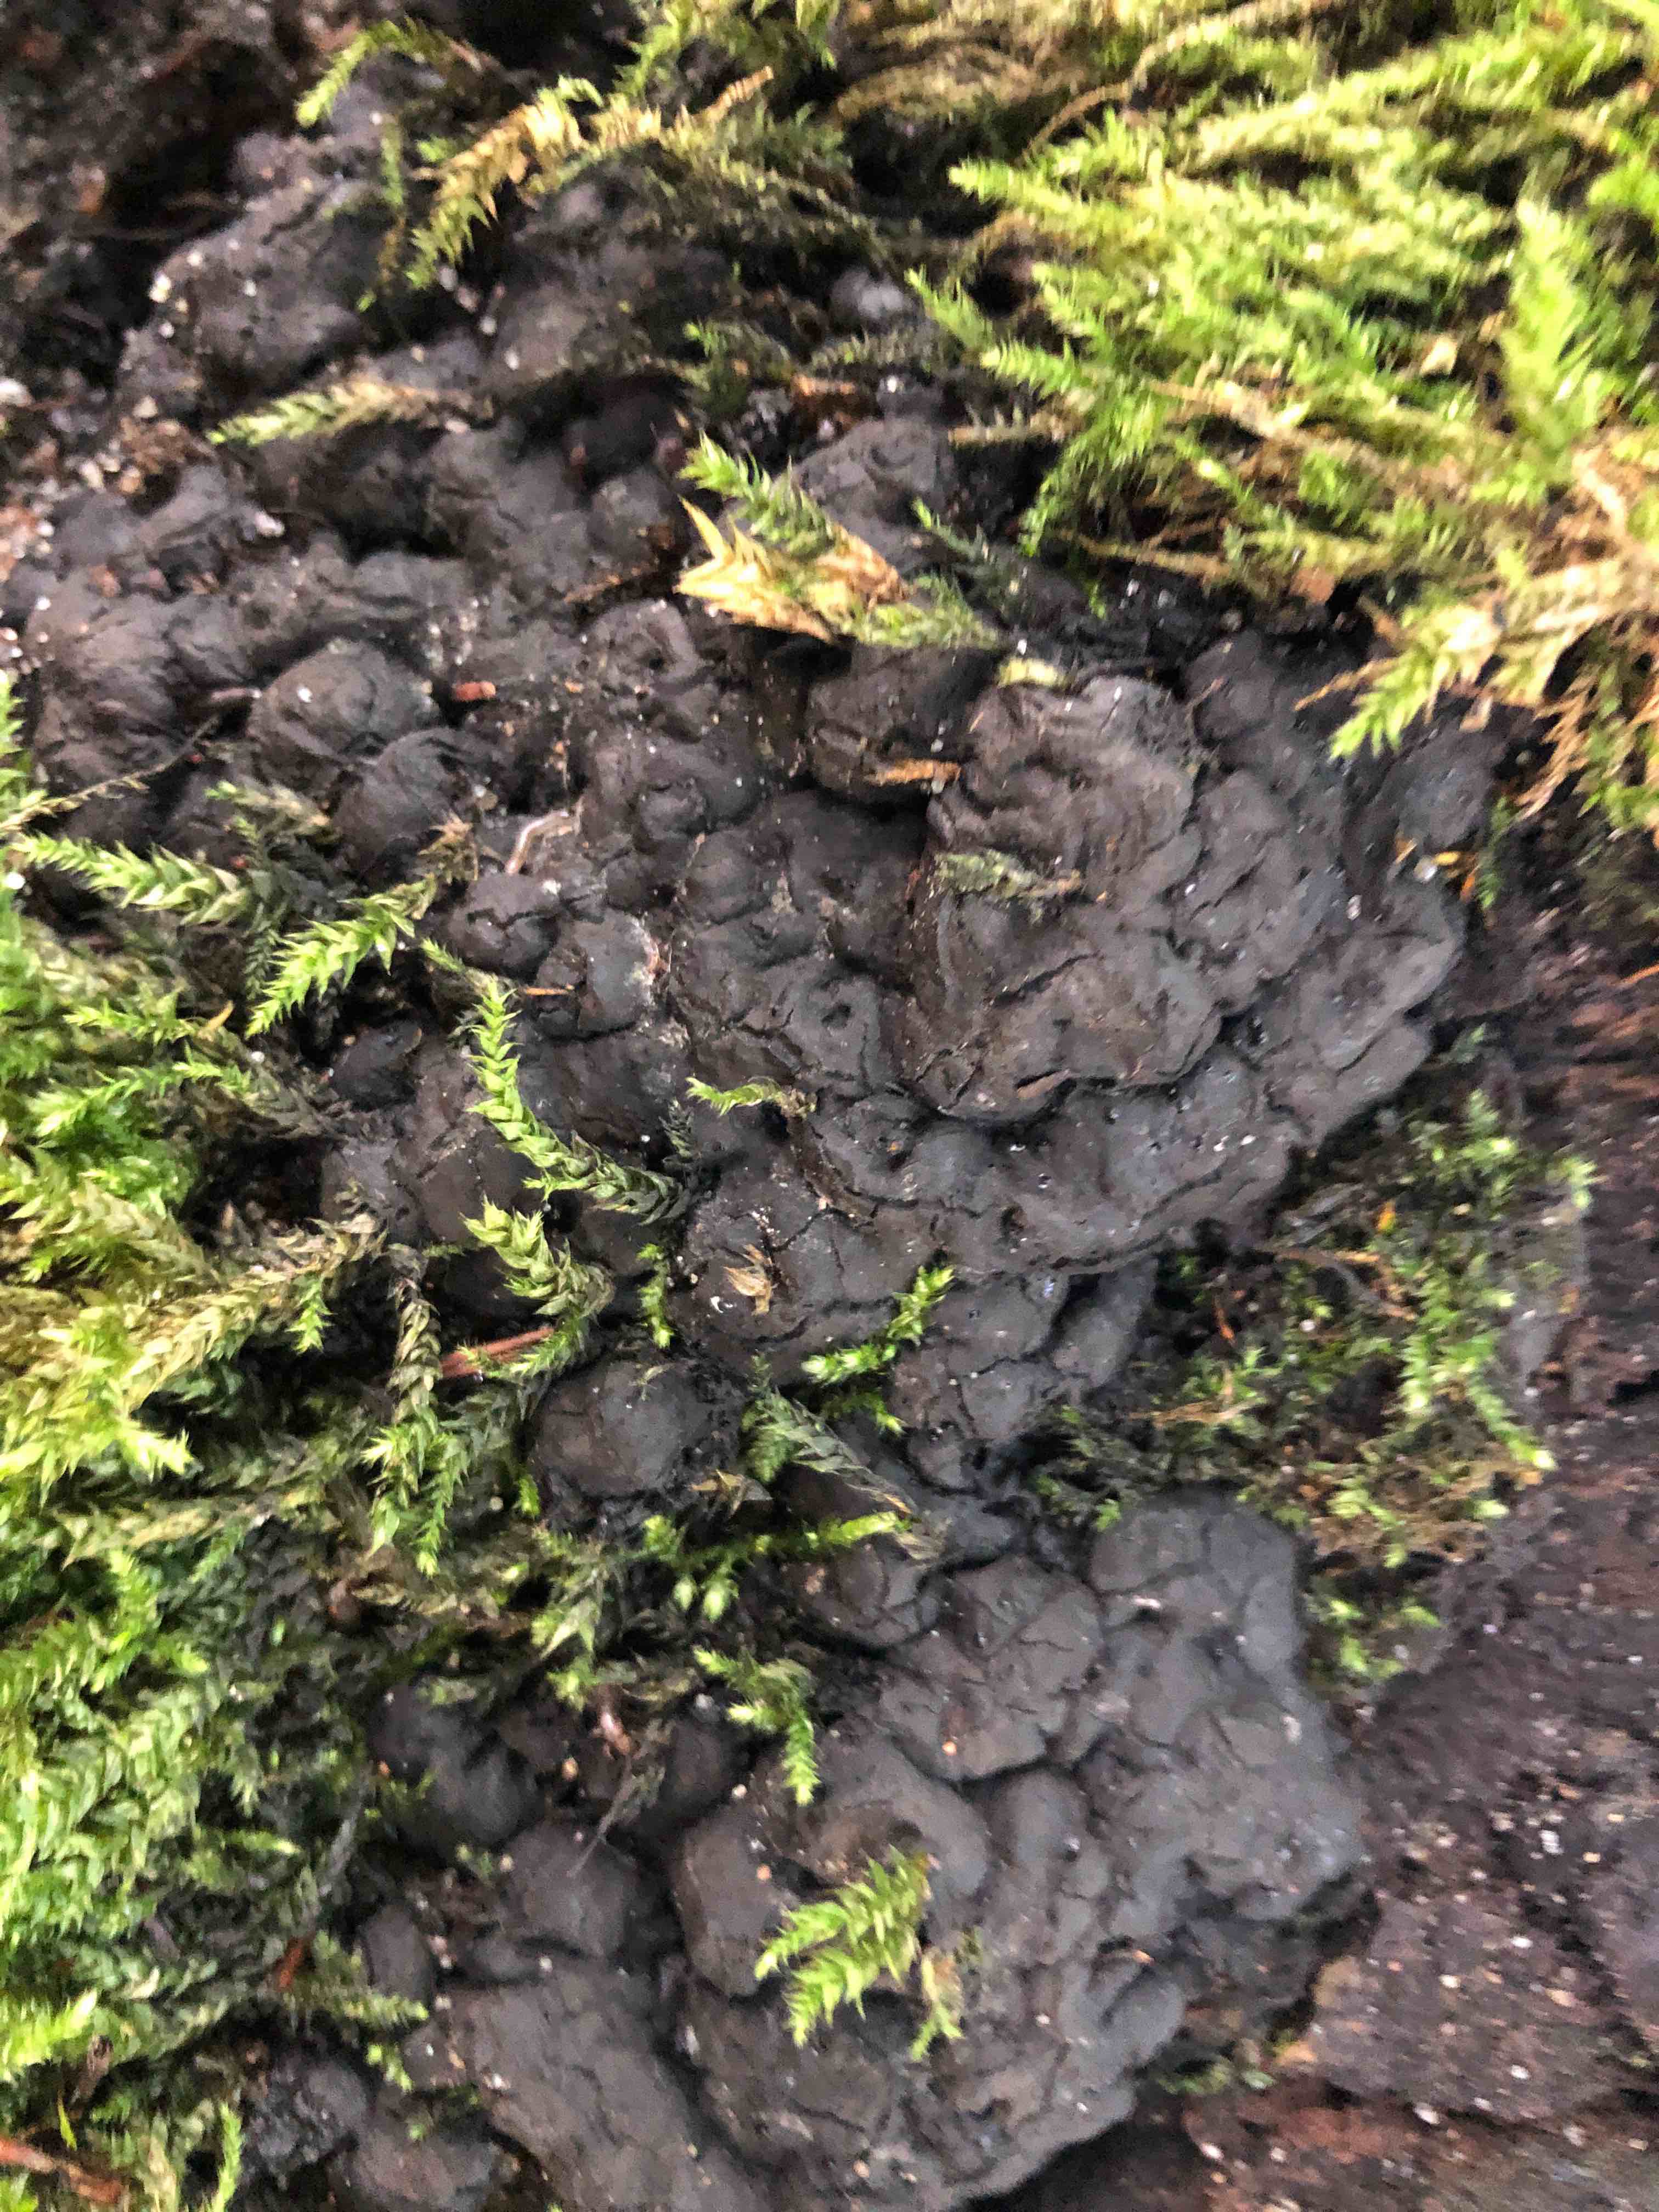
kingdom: Fungi
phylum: Ascomycota
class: Sordariomycetes
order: Xylariales
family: Xylariaceae
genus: Kretzschmaria
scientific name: Kretzschmaria deusta
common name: stor kulsvamp
